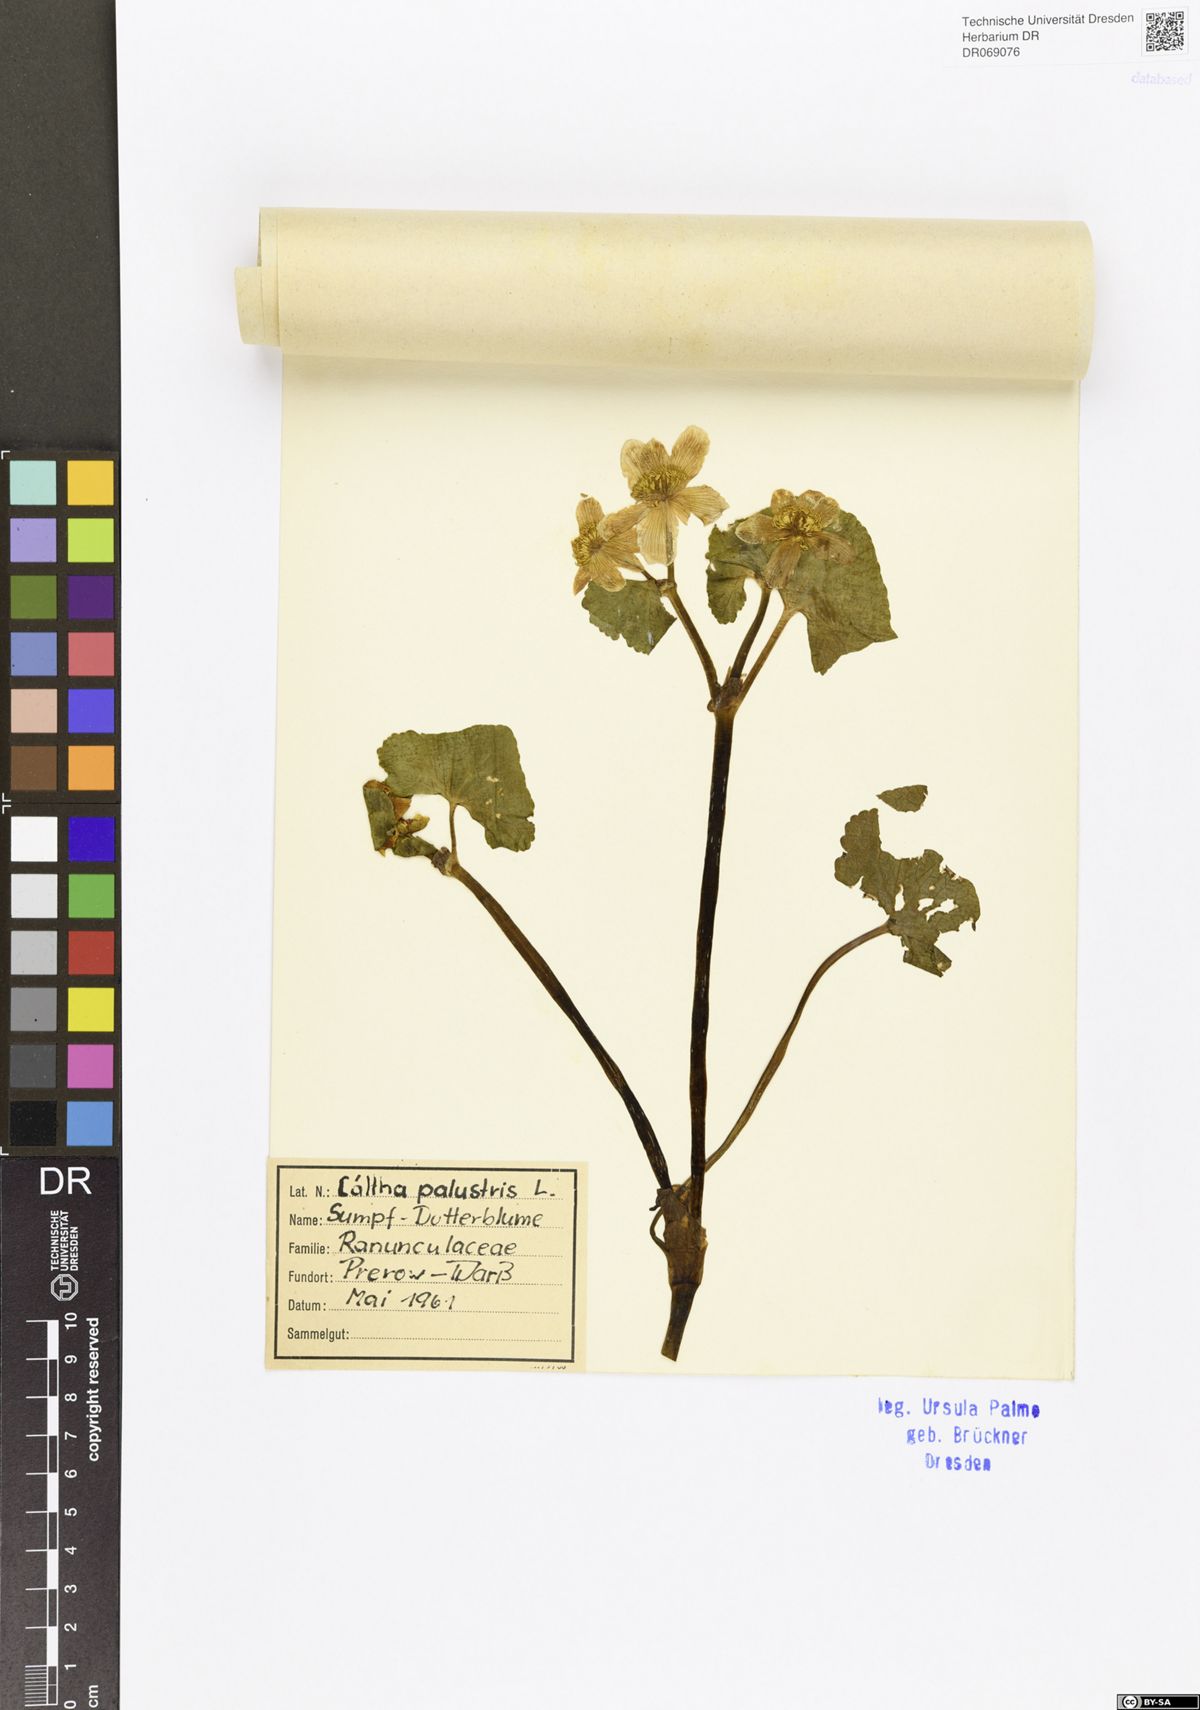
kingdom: Plantae
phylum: Tracheophyta
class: Magnoliopsida
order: Ranunculales
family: Ranunculaceae
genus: Caltha
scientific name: Caltha palustris
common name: Marsh marigold
